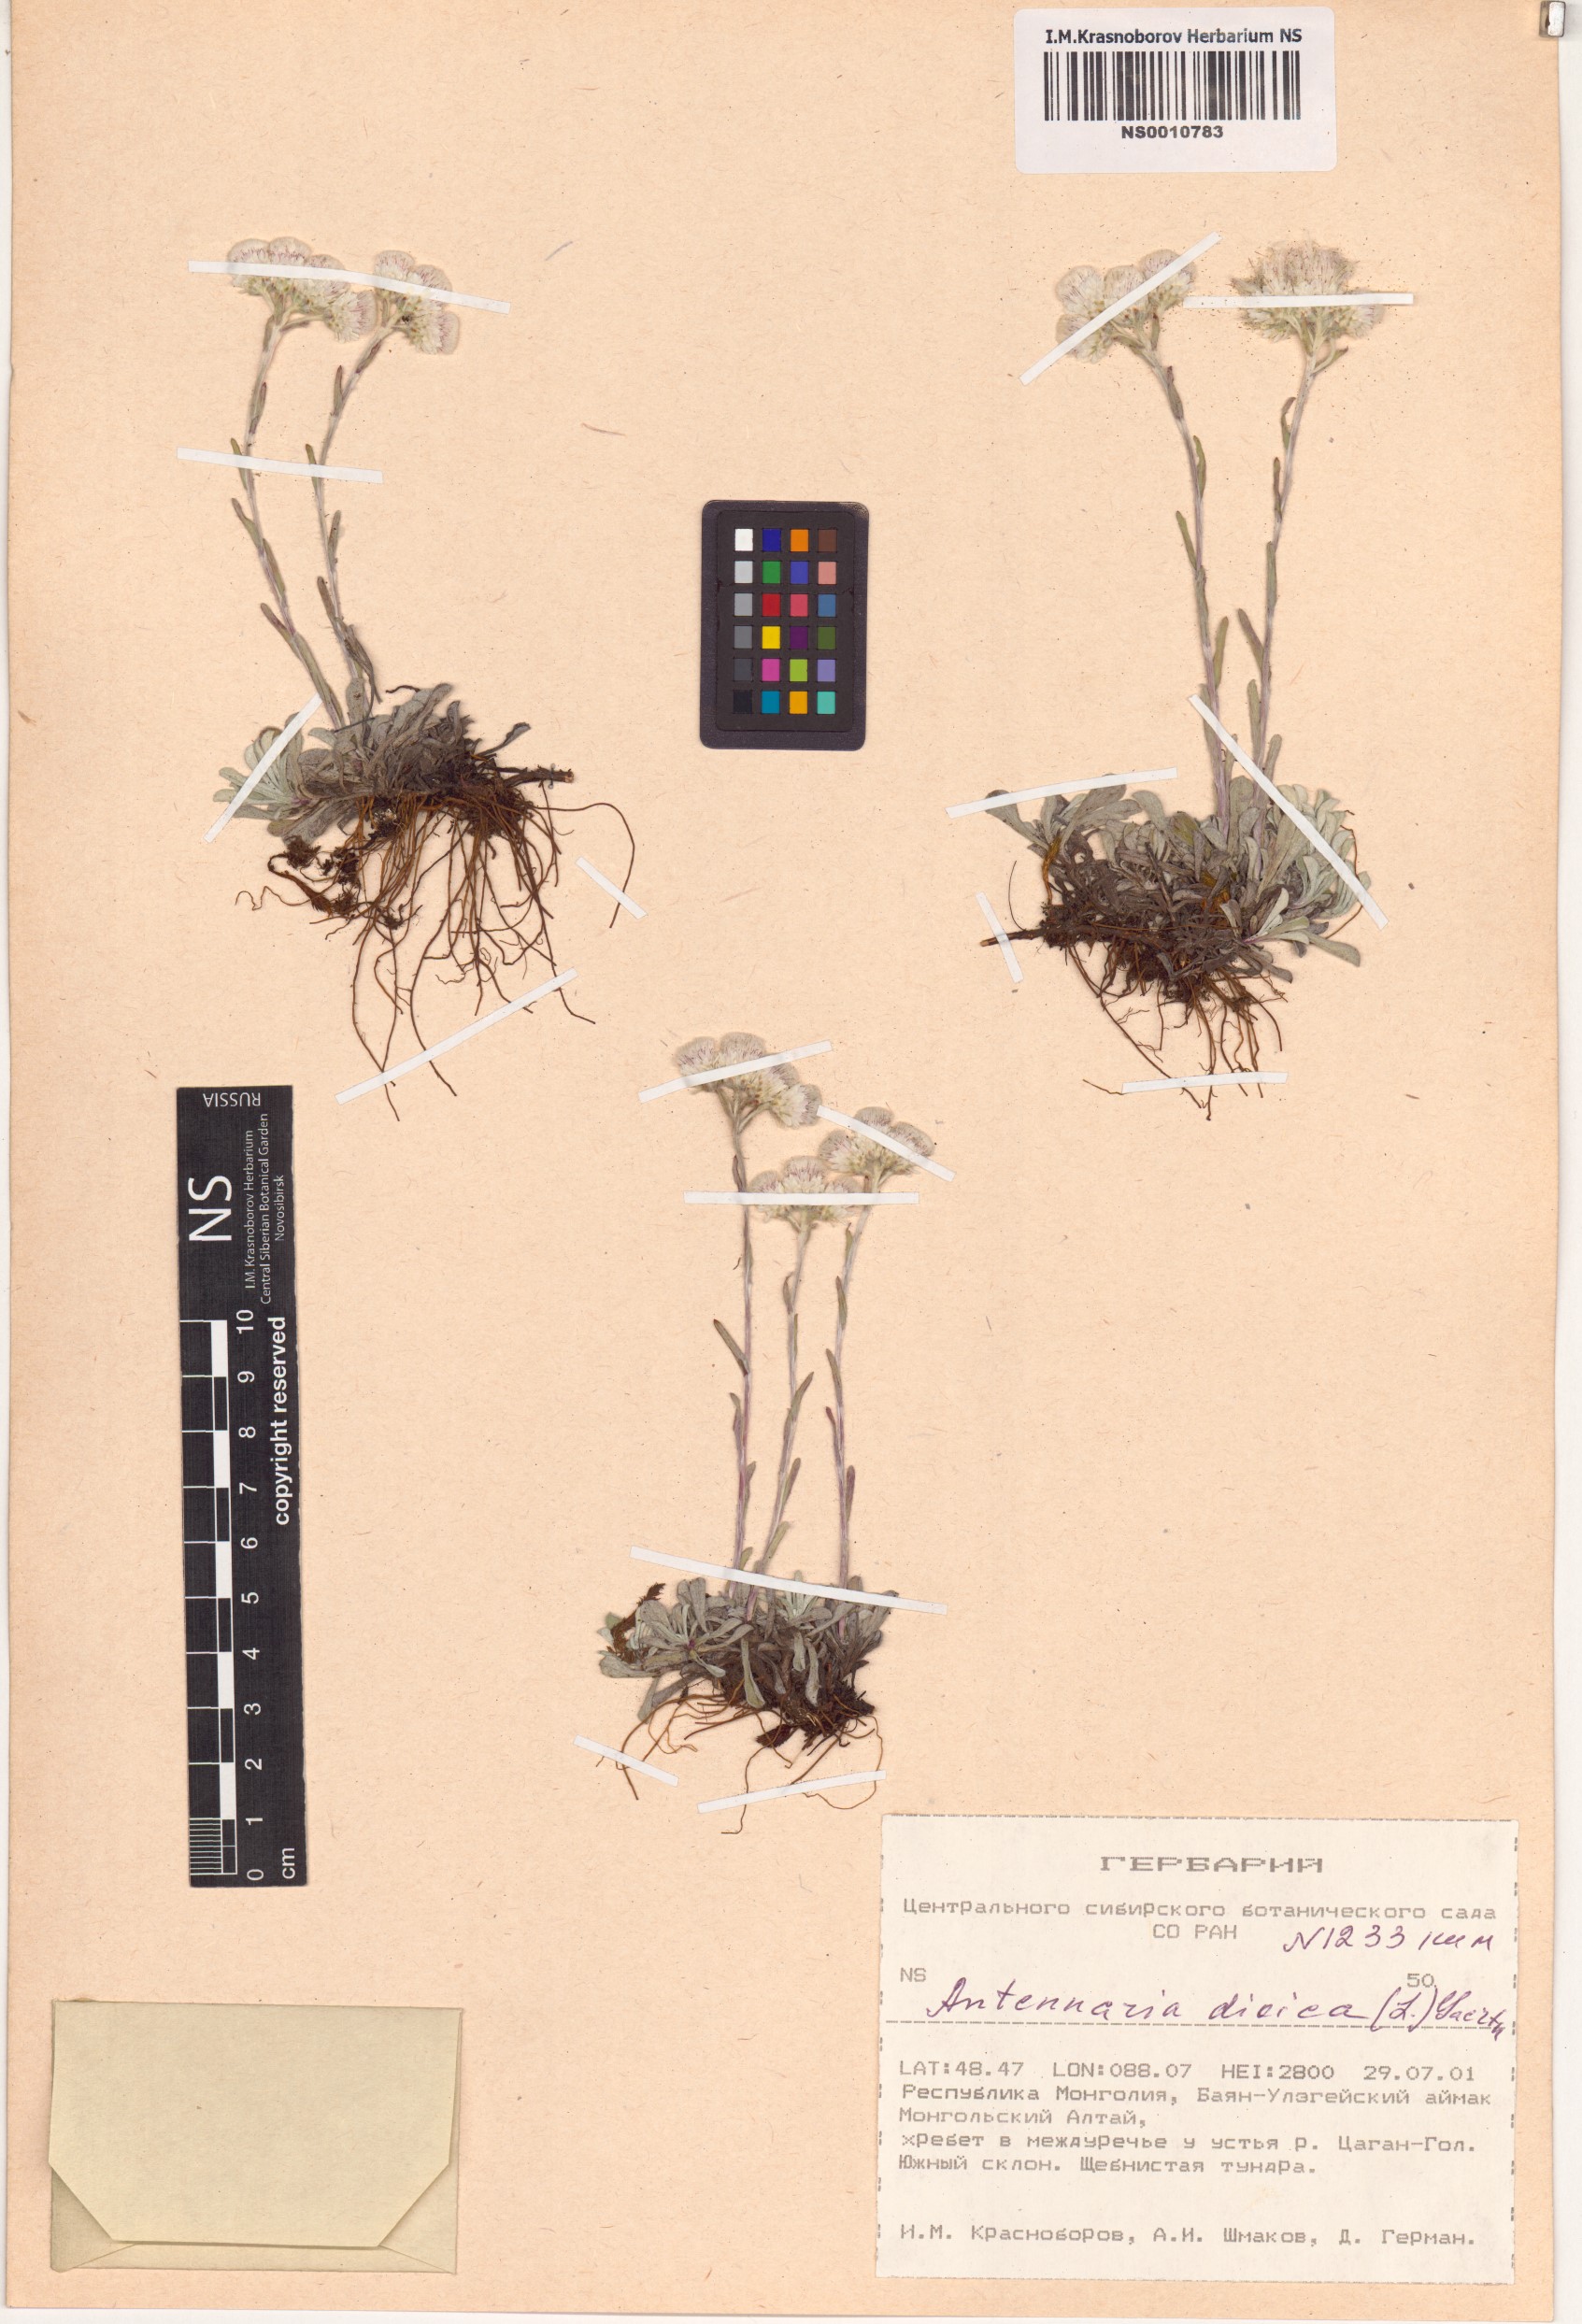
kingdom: Plantae
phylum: Tracheophyta
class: Magnoliopsida
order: Asterales
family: Asteraceae
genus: Antennaria
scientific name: Antennaria dioica
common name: Mountain everlasting
